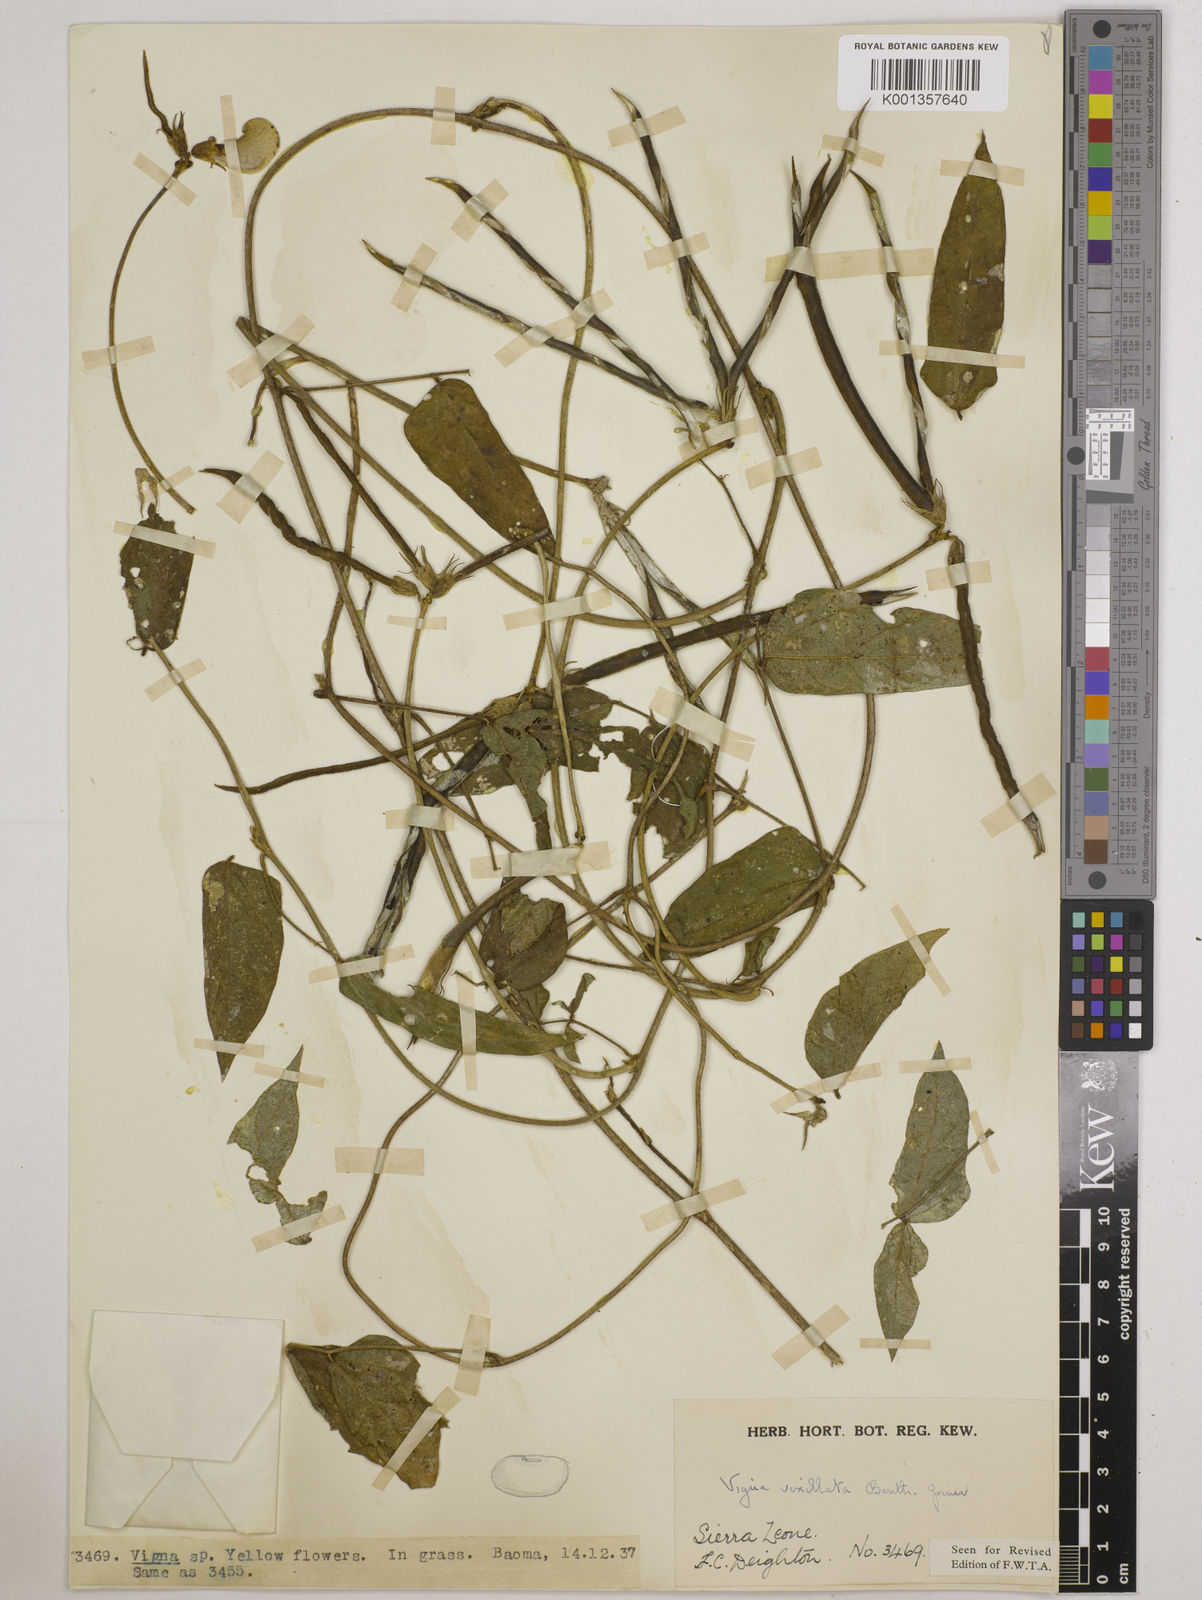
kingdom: Plantae
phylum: Tracheophyta
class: Magnoliopsida
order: Fabales
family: Fabaceae
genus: Vigna
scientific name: Vigna vexillata
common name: Zombi pea
